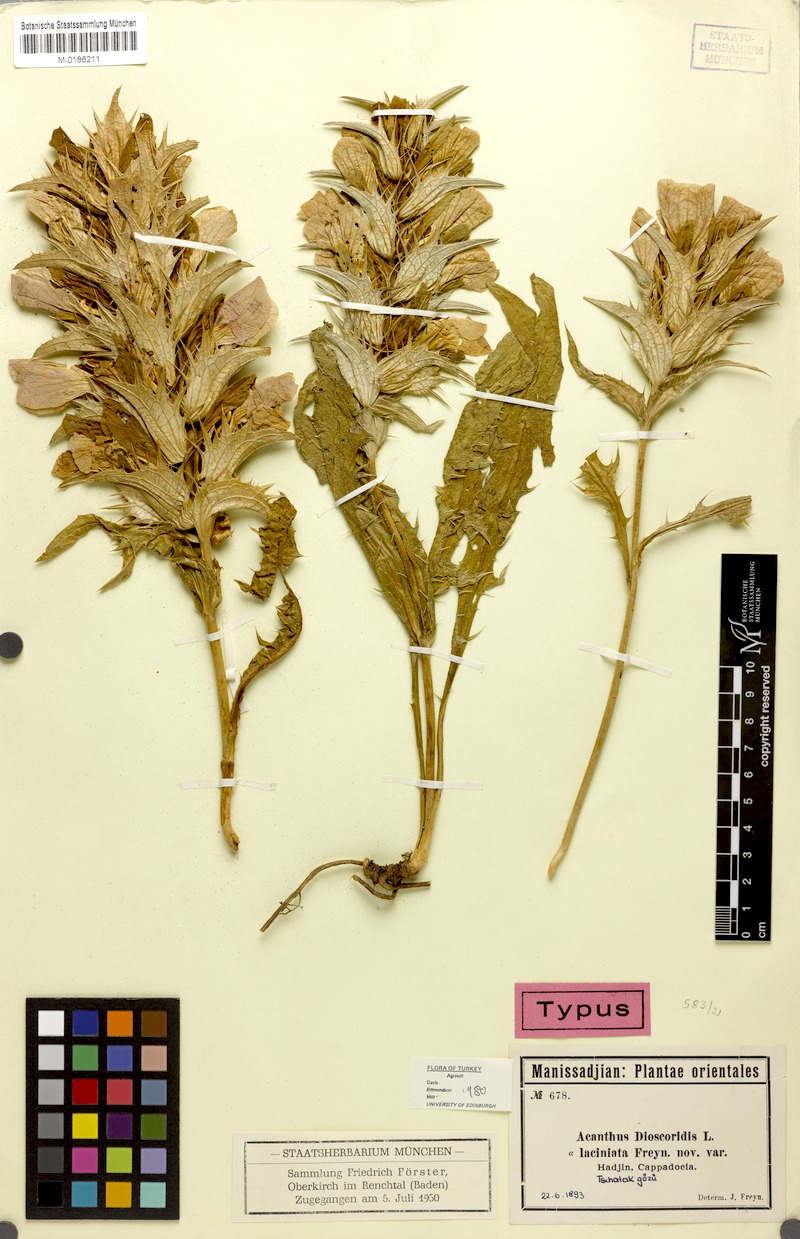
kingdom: Plantae
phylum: Tracheophyta
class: Magnoliopsida
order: Lamiales
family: Acanthaceae
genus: Acanthus
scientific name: Acanthus dioscoridis
